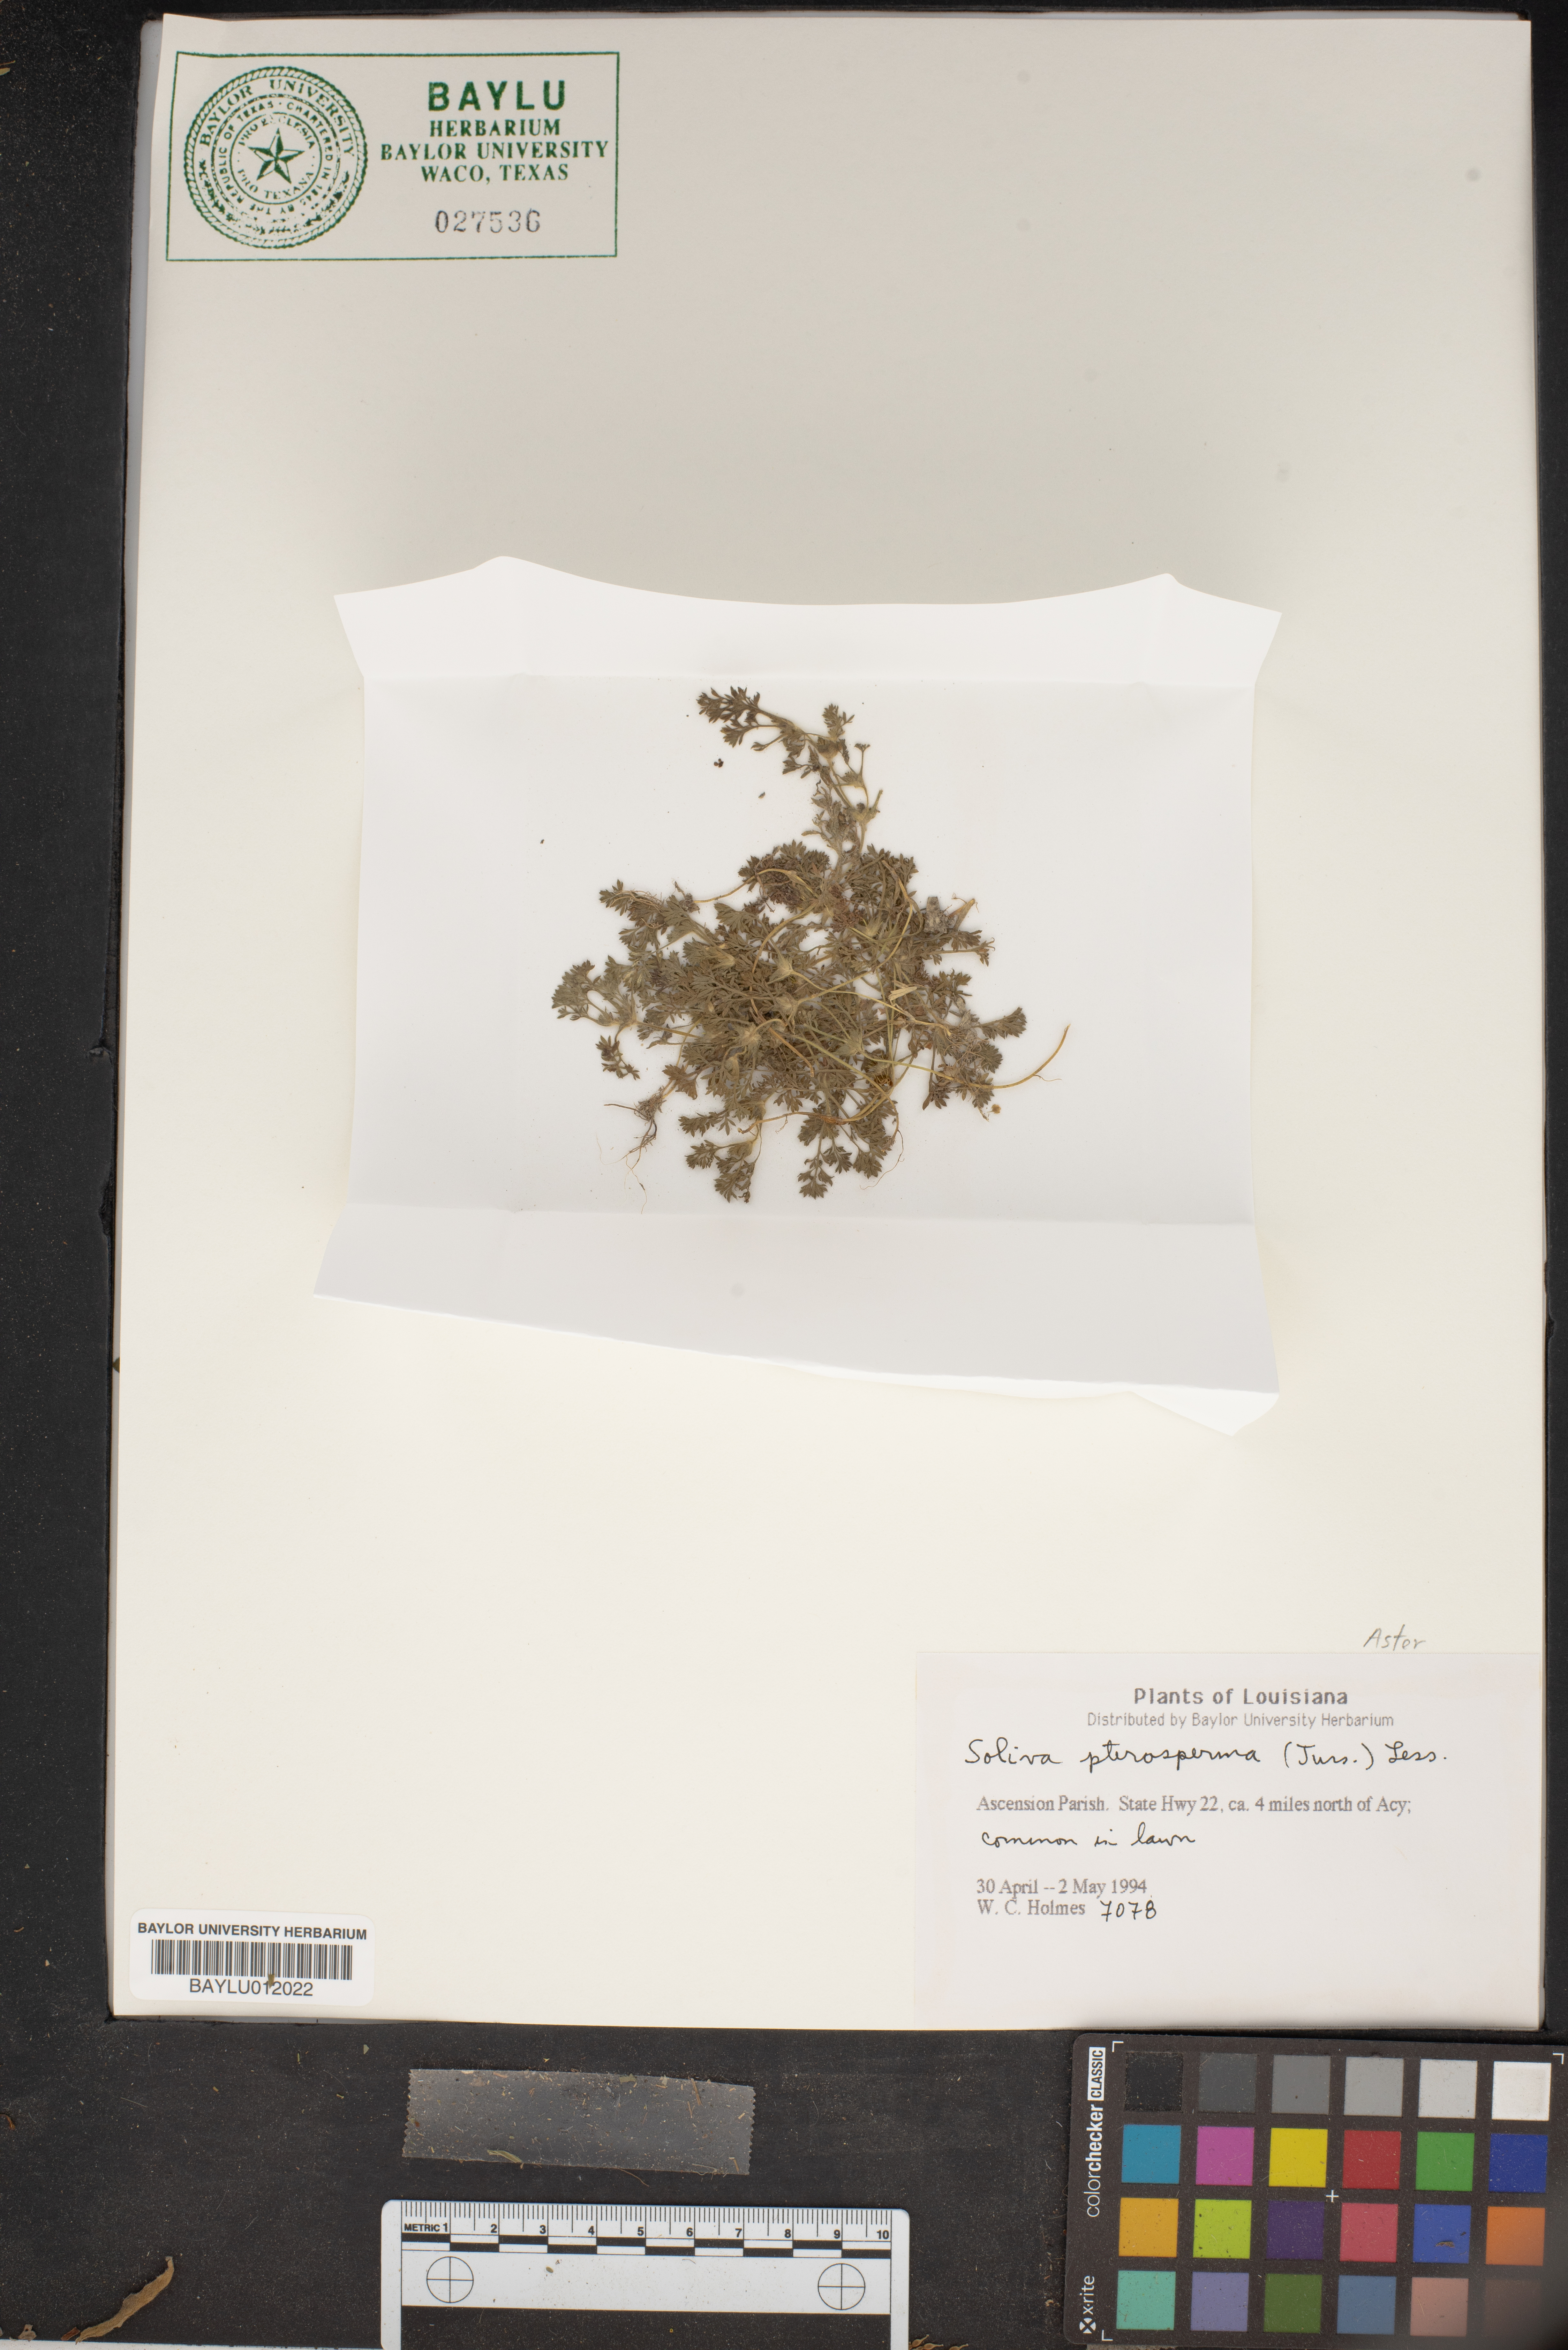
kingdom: Plantae
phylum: Tracheophyta
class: Magnoliopsida
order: Asterales
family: Asteraceae
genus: Soliva
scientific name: Soliva sessilis
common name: Field burrweed
